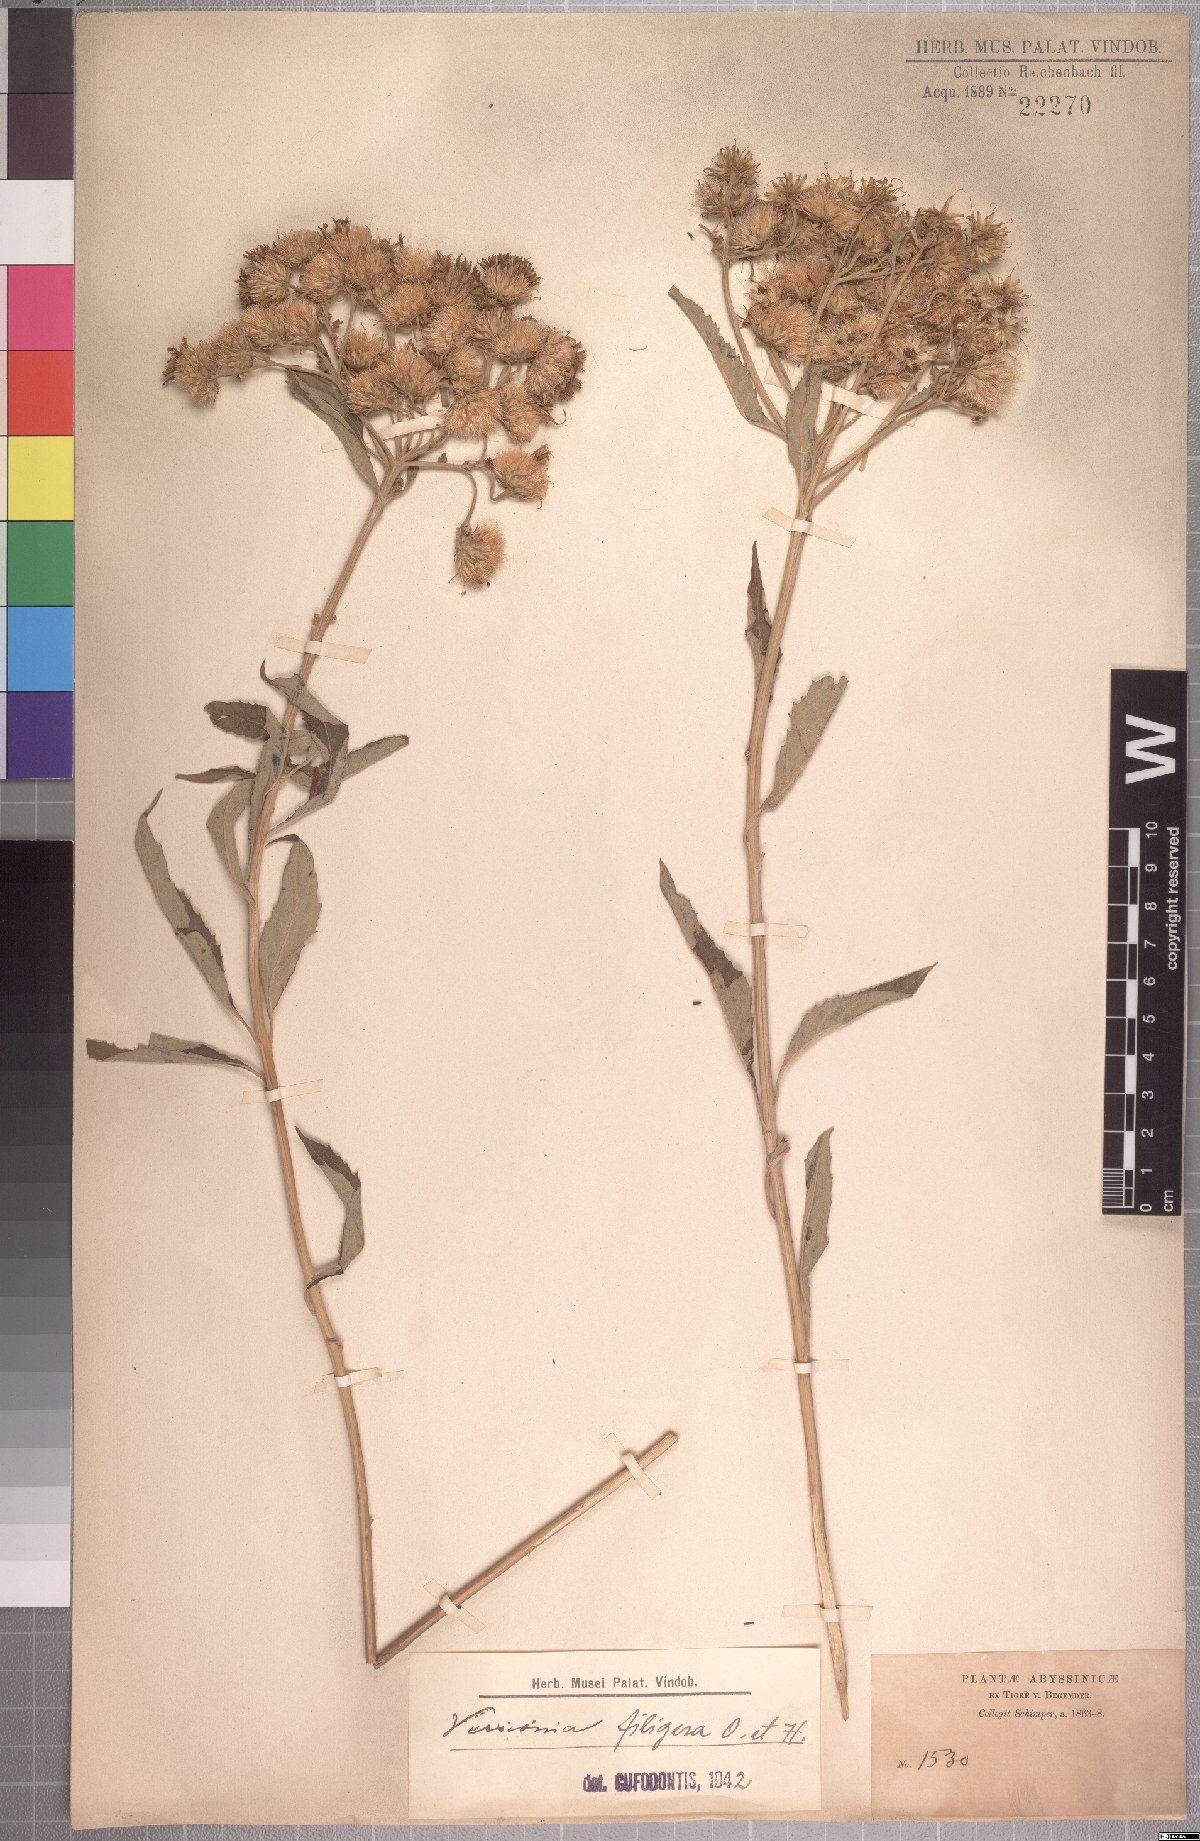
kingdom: Plantae
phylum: Tracheophyta
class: Magnoliopsida
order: Asterales
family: Asteraceae
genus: Baccharoides
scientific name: Baccharoides filigera
